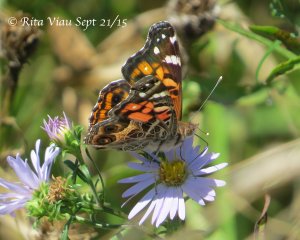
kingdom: Animalia
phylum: Arthropoda
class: Insecta
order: Lepidoptera
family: Nymphalidae
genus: Vanessa
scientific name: Vanessa virginiensis
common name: American Lady
